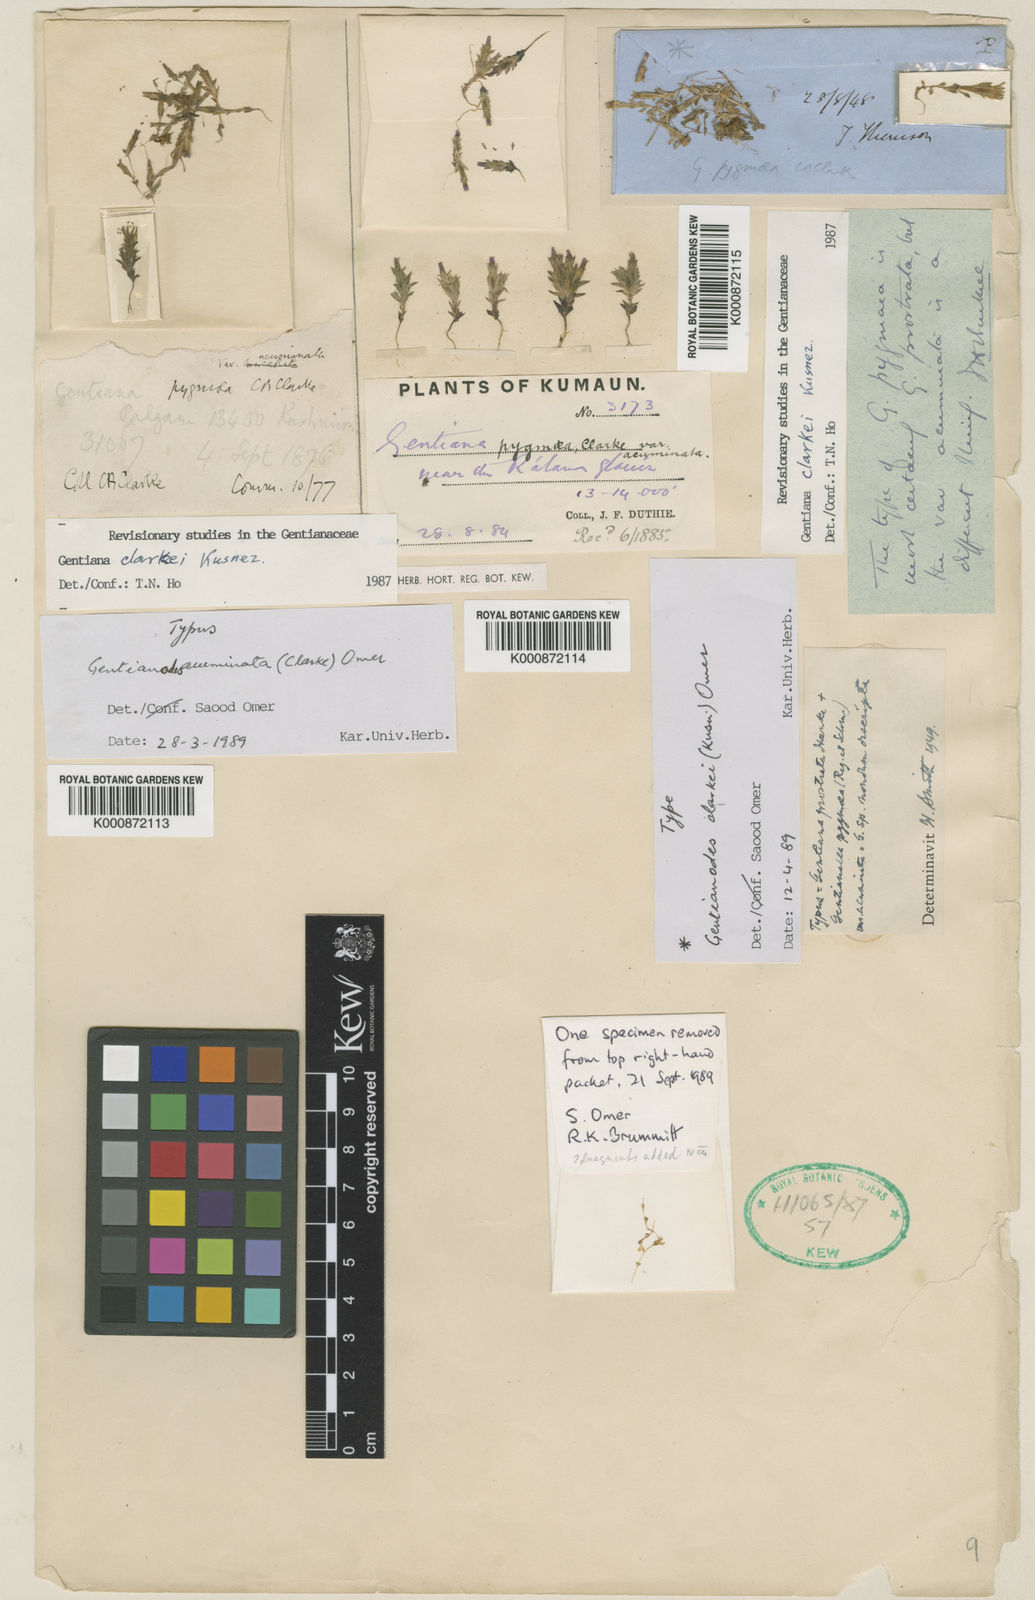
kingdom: Plantae
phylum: Tracheophyta
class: Magnoliopsida
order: Gentianales
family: Gentianaceae
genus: Gentiana
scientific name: Gentiana clarkei
